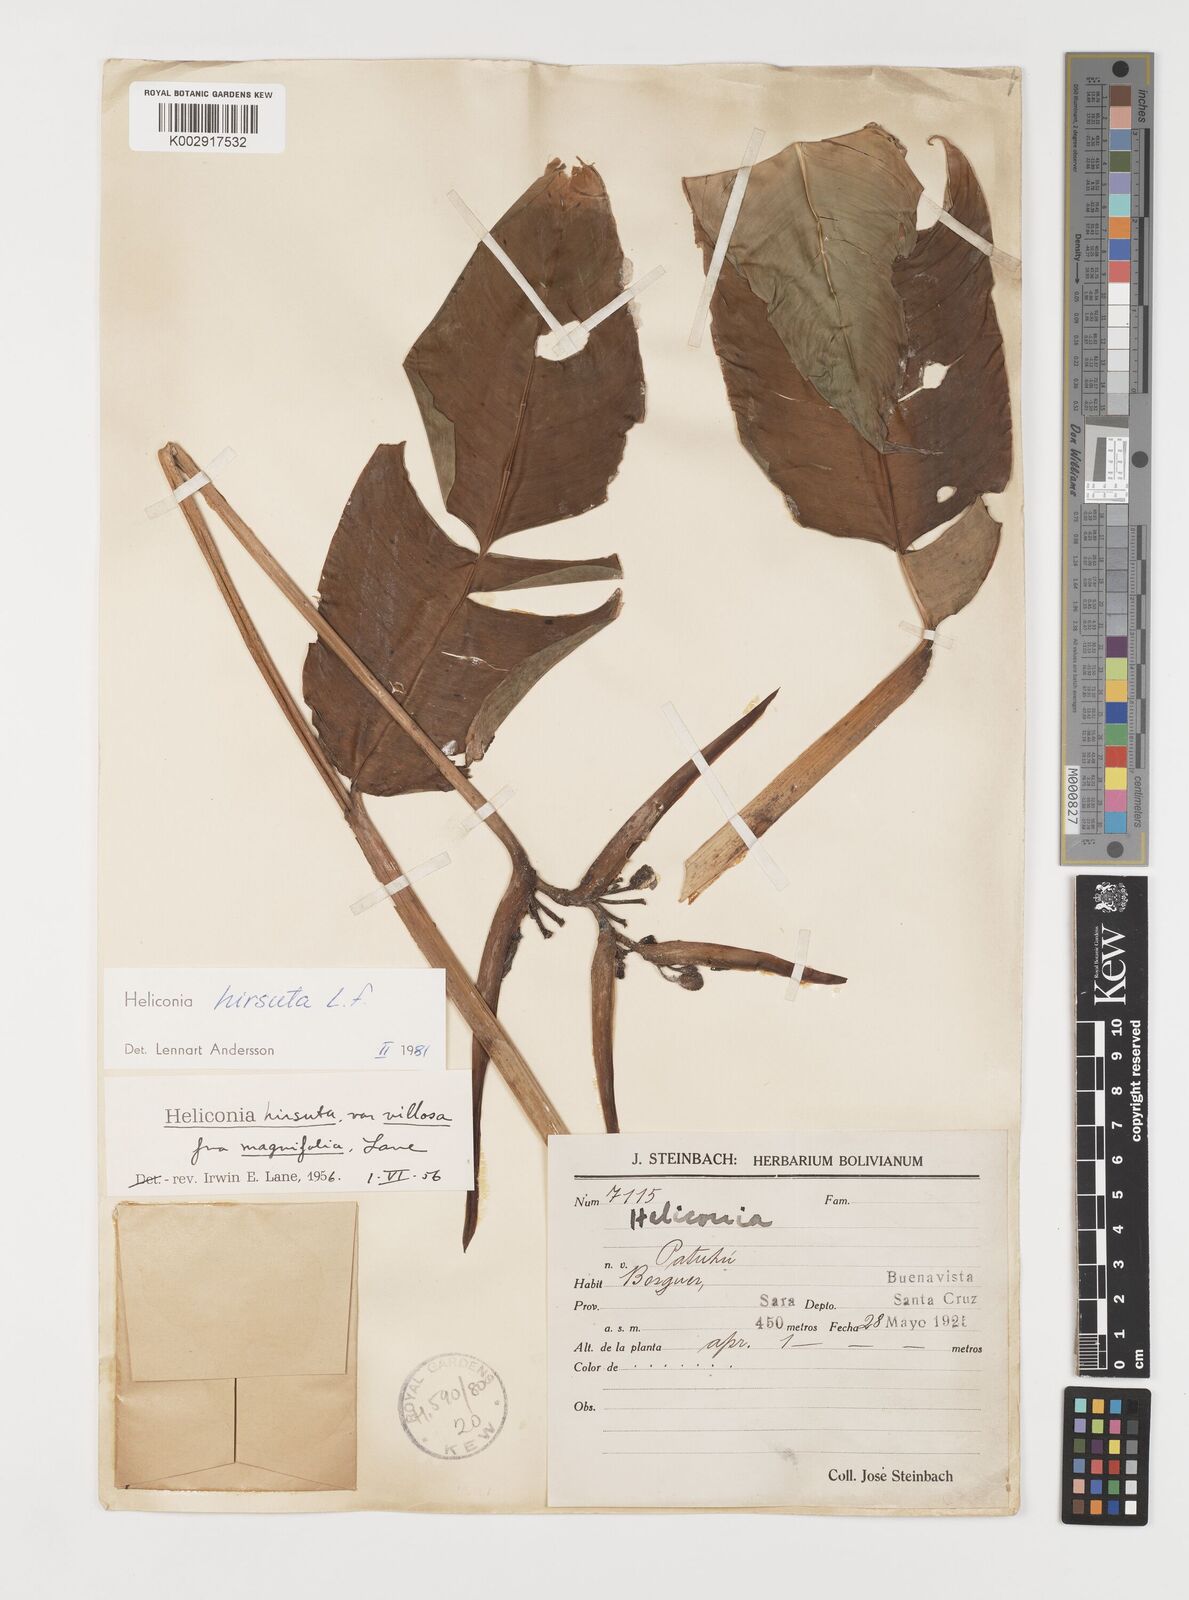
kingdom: Plantae
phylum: Tracheophyta
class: Liliopsida
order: Zingiberales
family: Heliconiaceae
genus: Heliconia
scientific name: Heliconia hirsuta
